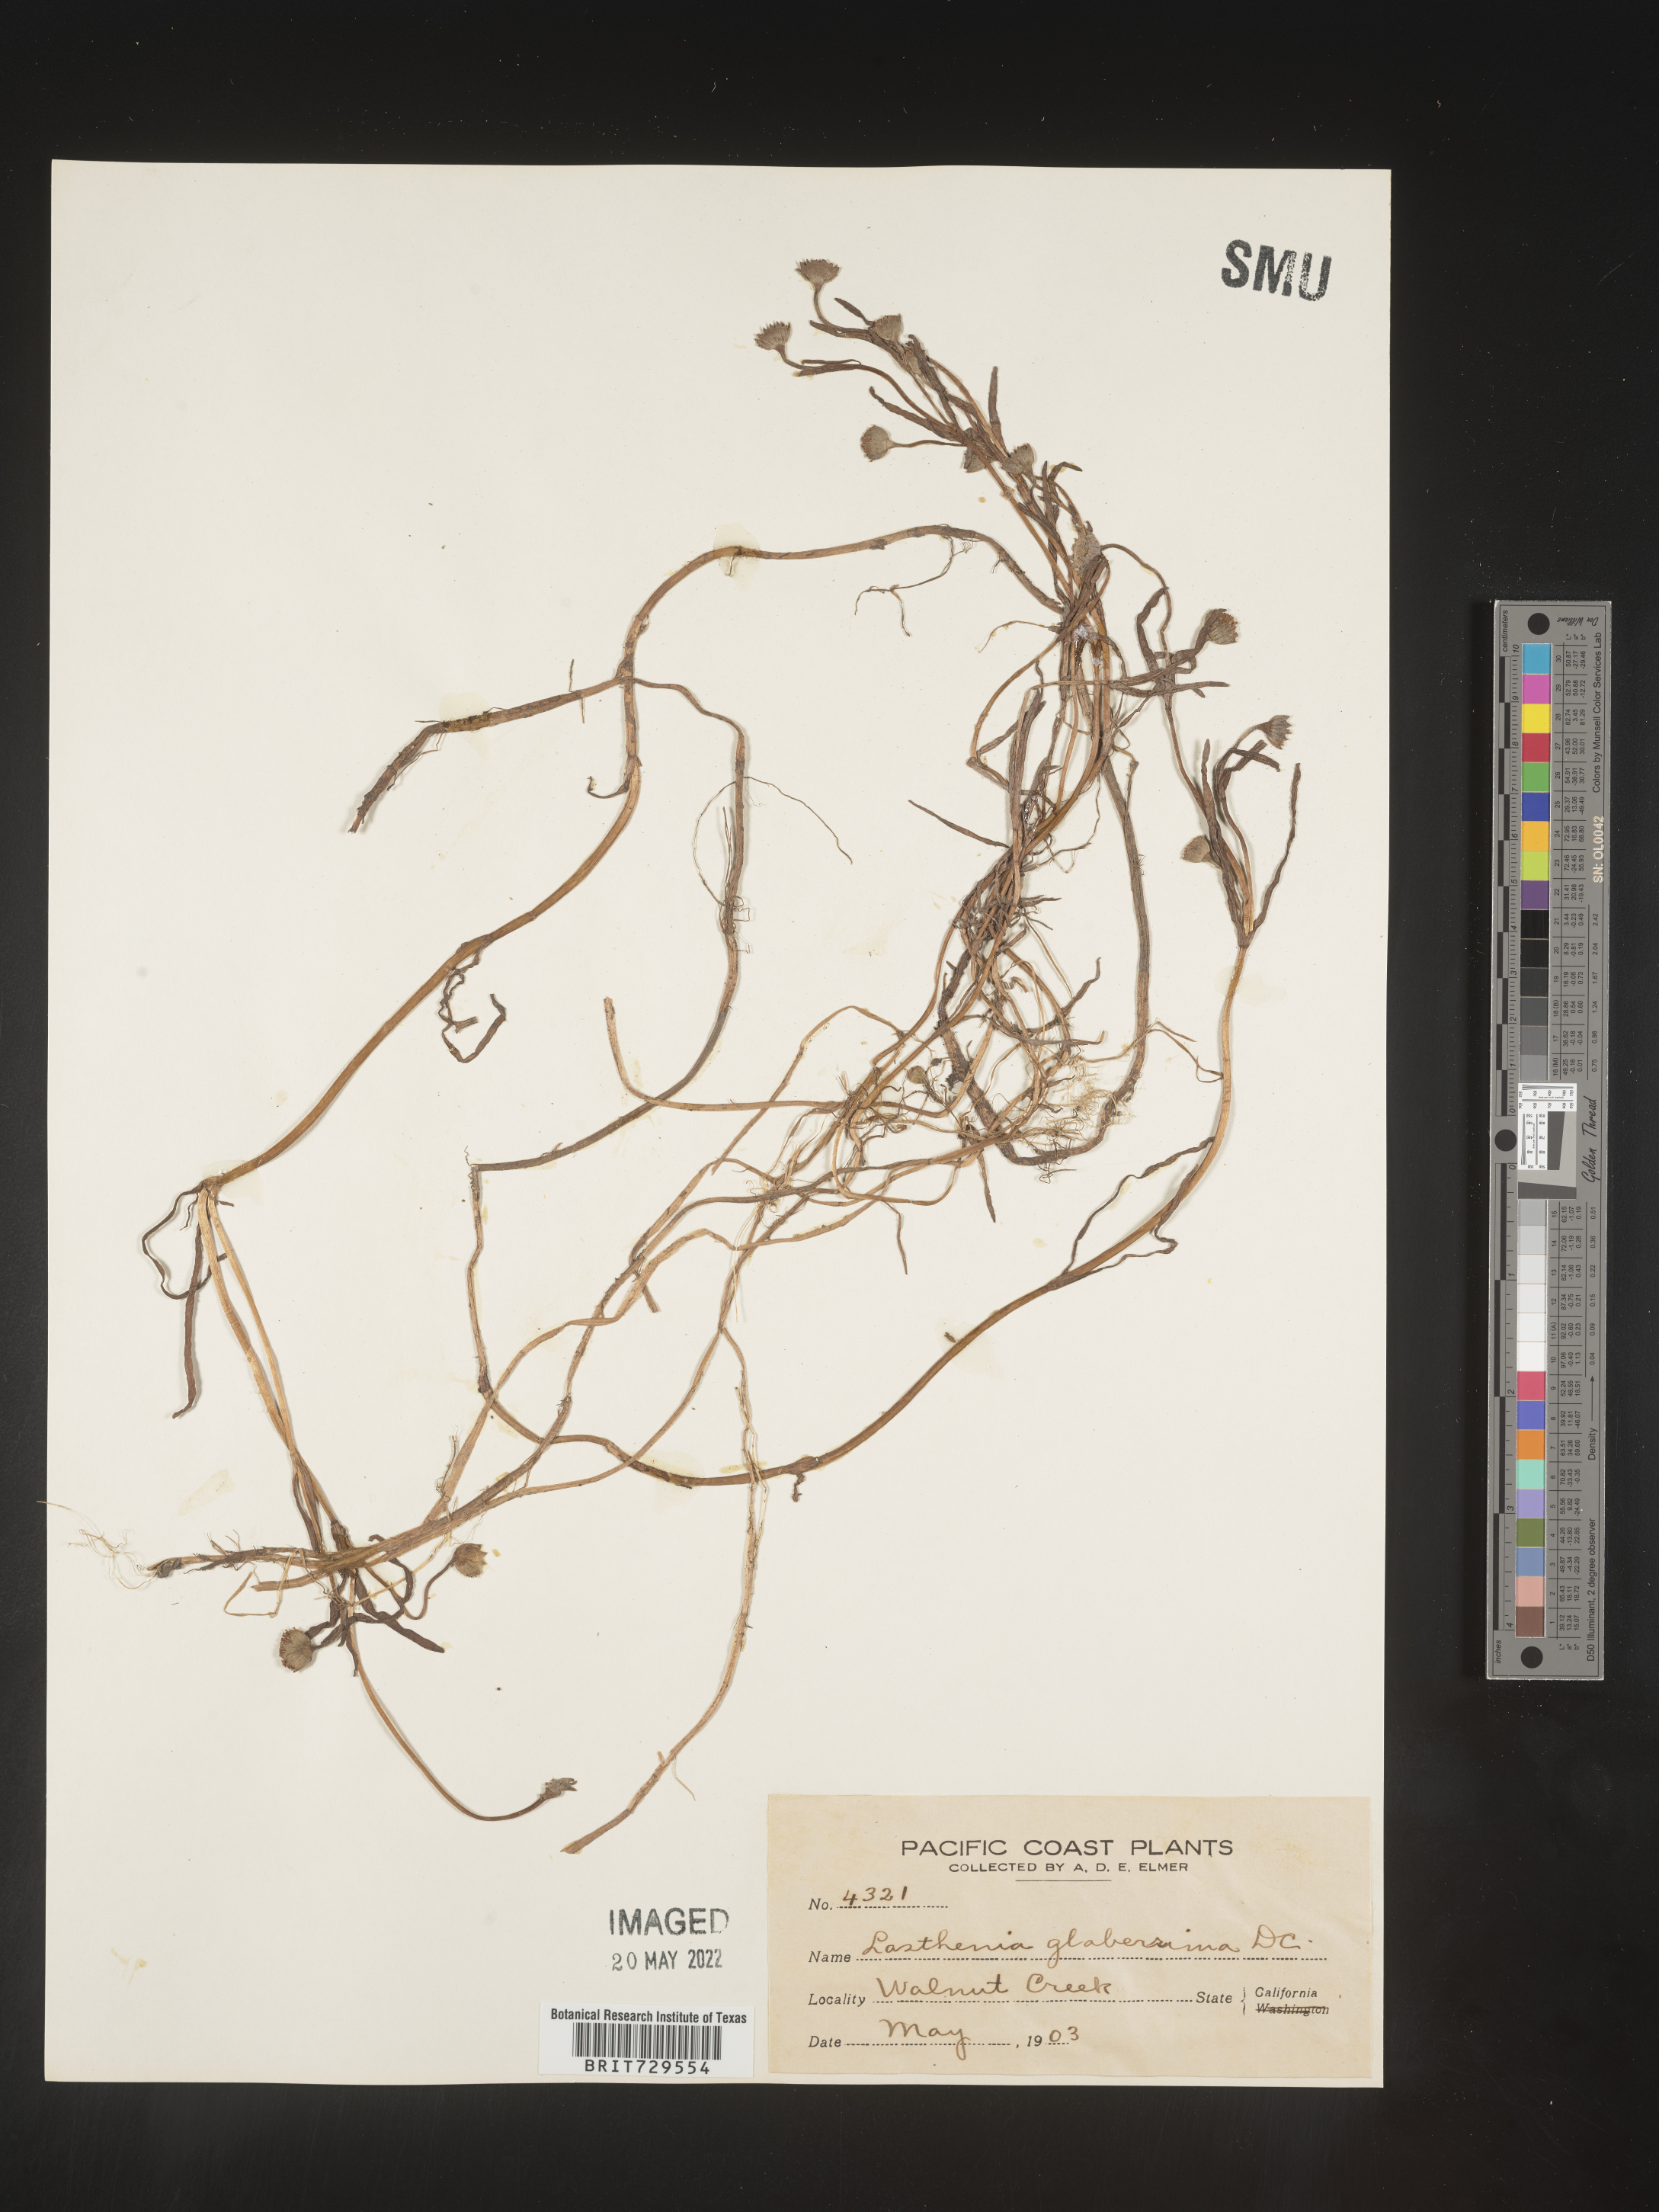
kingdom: Plantae
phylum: Tracheophyta
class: Magnoliopsida
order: Asterales
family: Asteraceae
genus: Lasthenia
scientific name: Lasthenia
